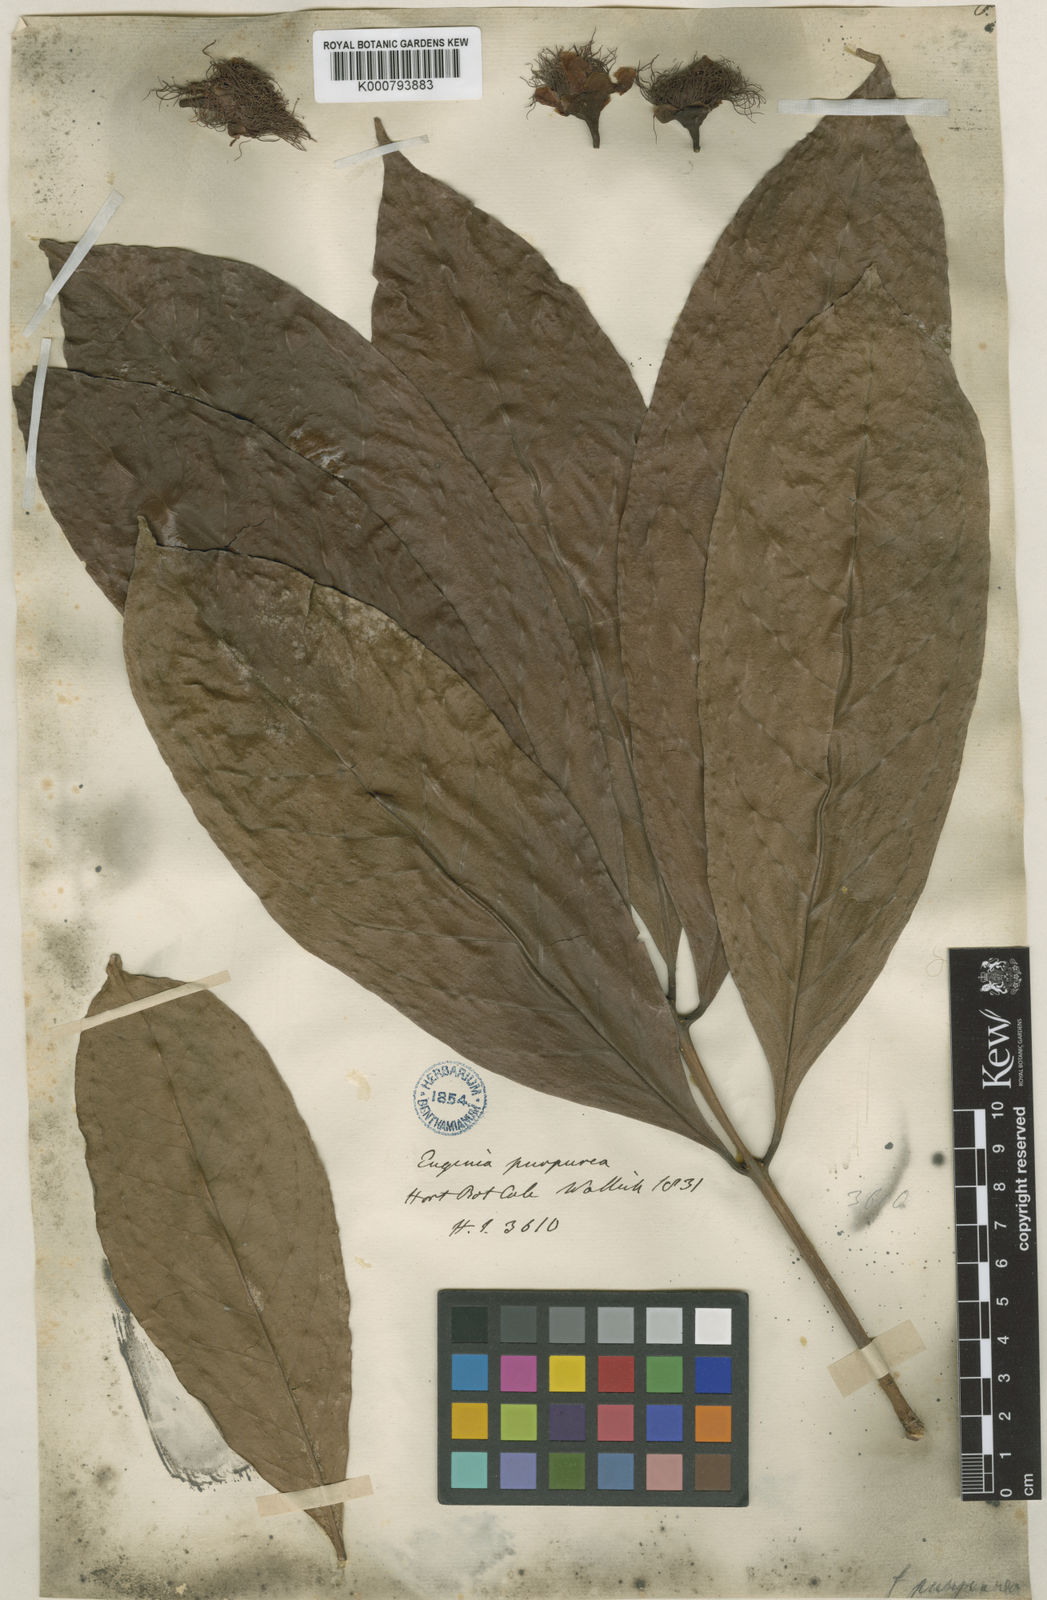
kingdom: Plantae
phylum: Tracheophyta
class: Magnoliopsida
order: Myrtales
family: Myrtaceae
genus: Syzygium
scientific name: Syzygium malaccense
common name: Malaysian apple
